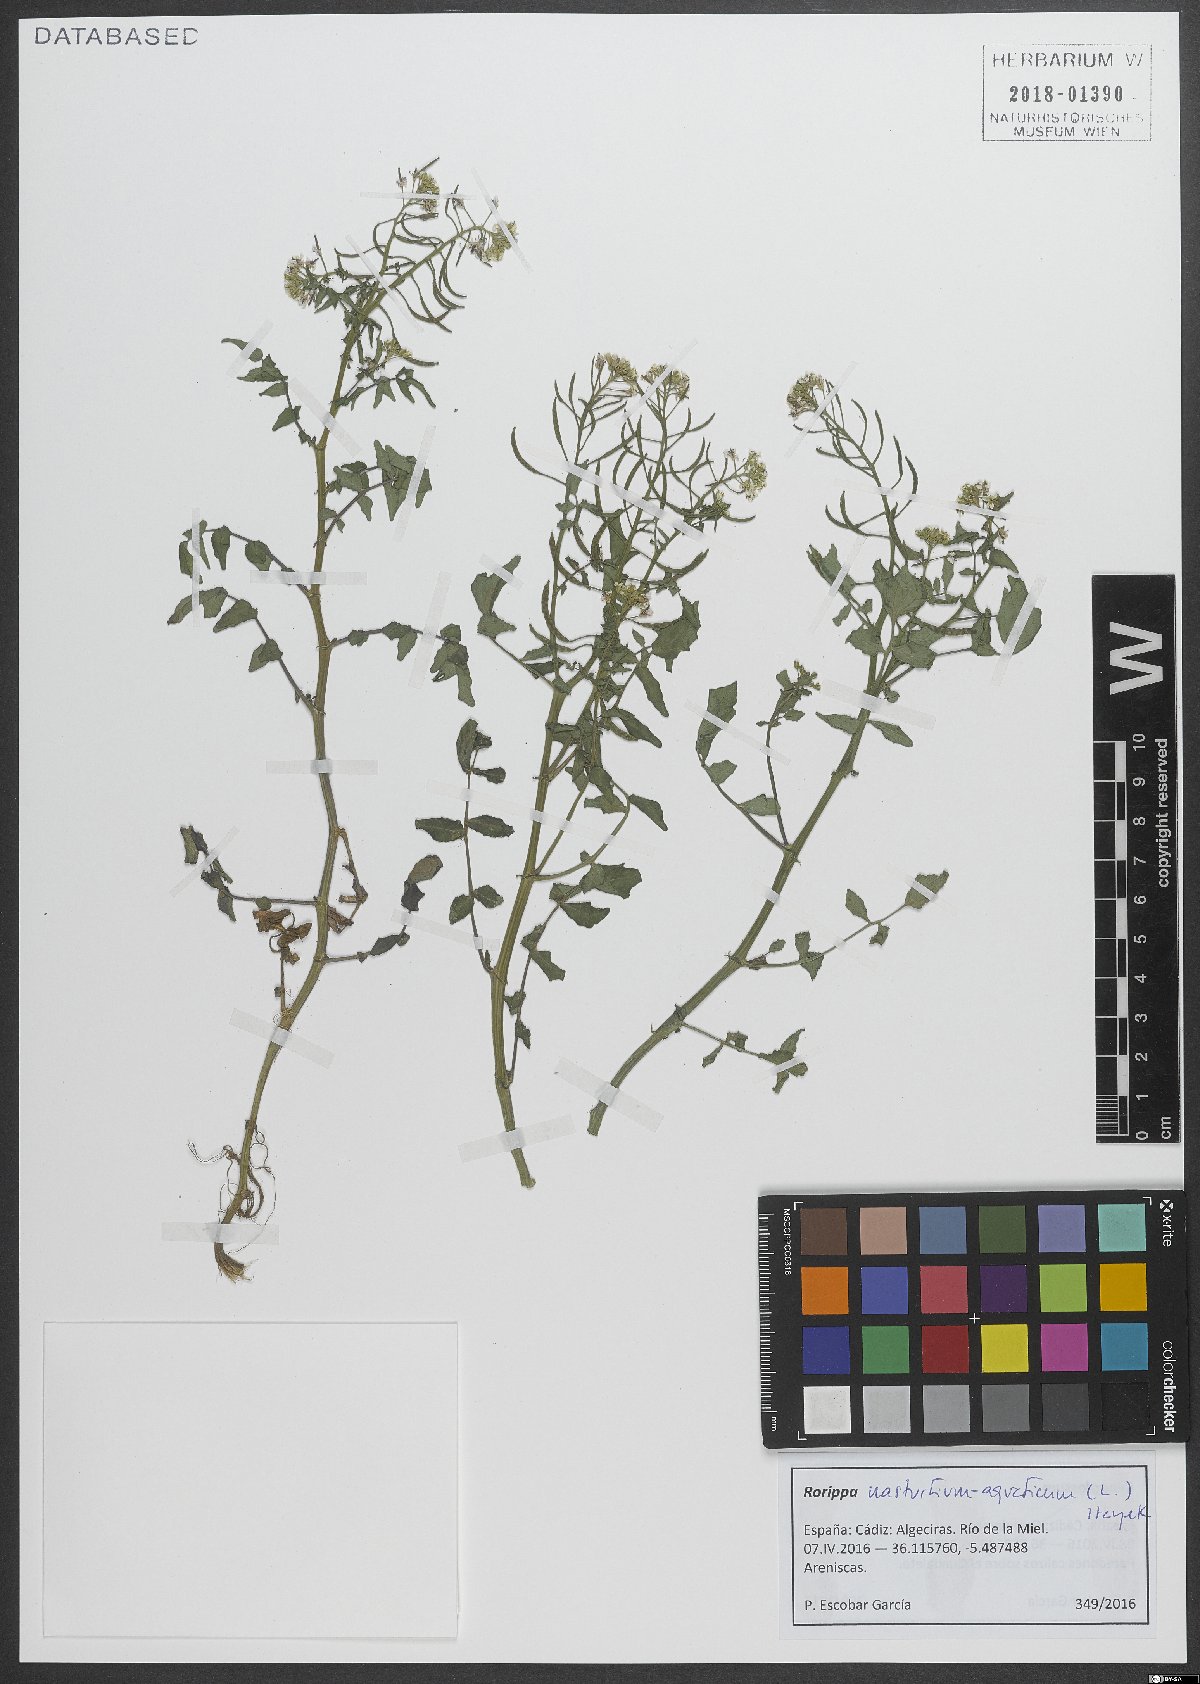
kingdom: Plantae
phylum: Tracheophyta
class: Magnoliopsida
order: Brassicales
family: Brassicaceae
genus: Nasturtium
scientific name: Nasturtium officinale
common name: Watercress
